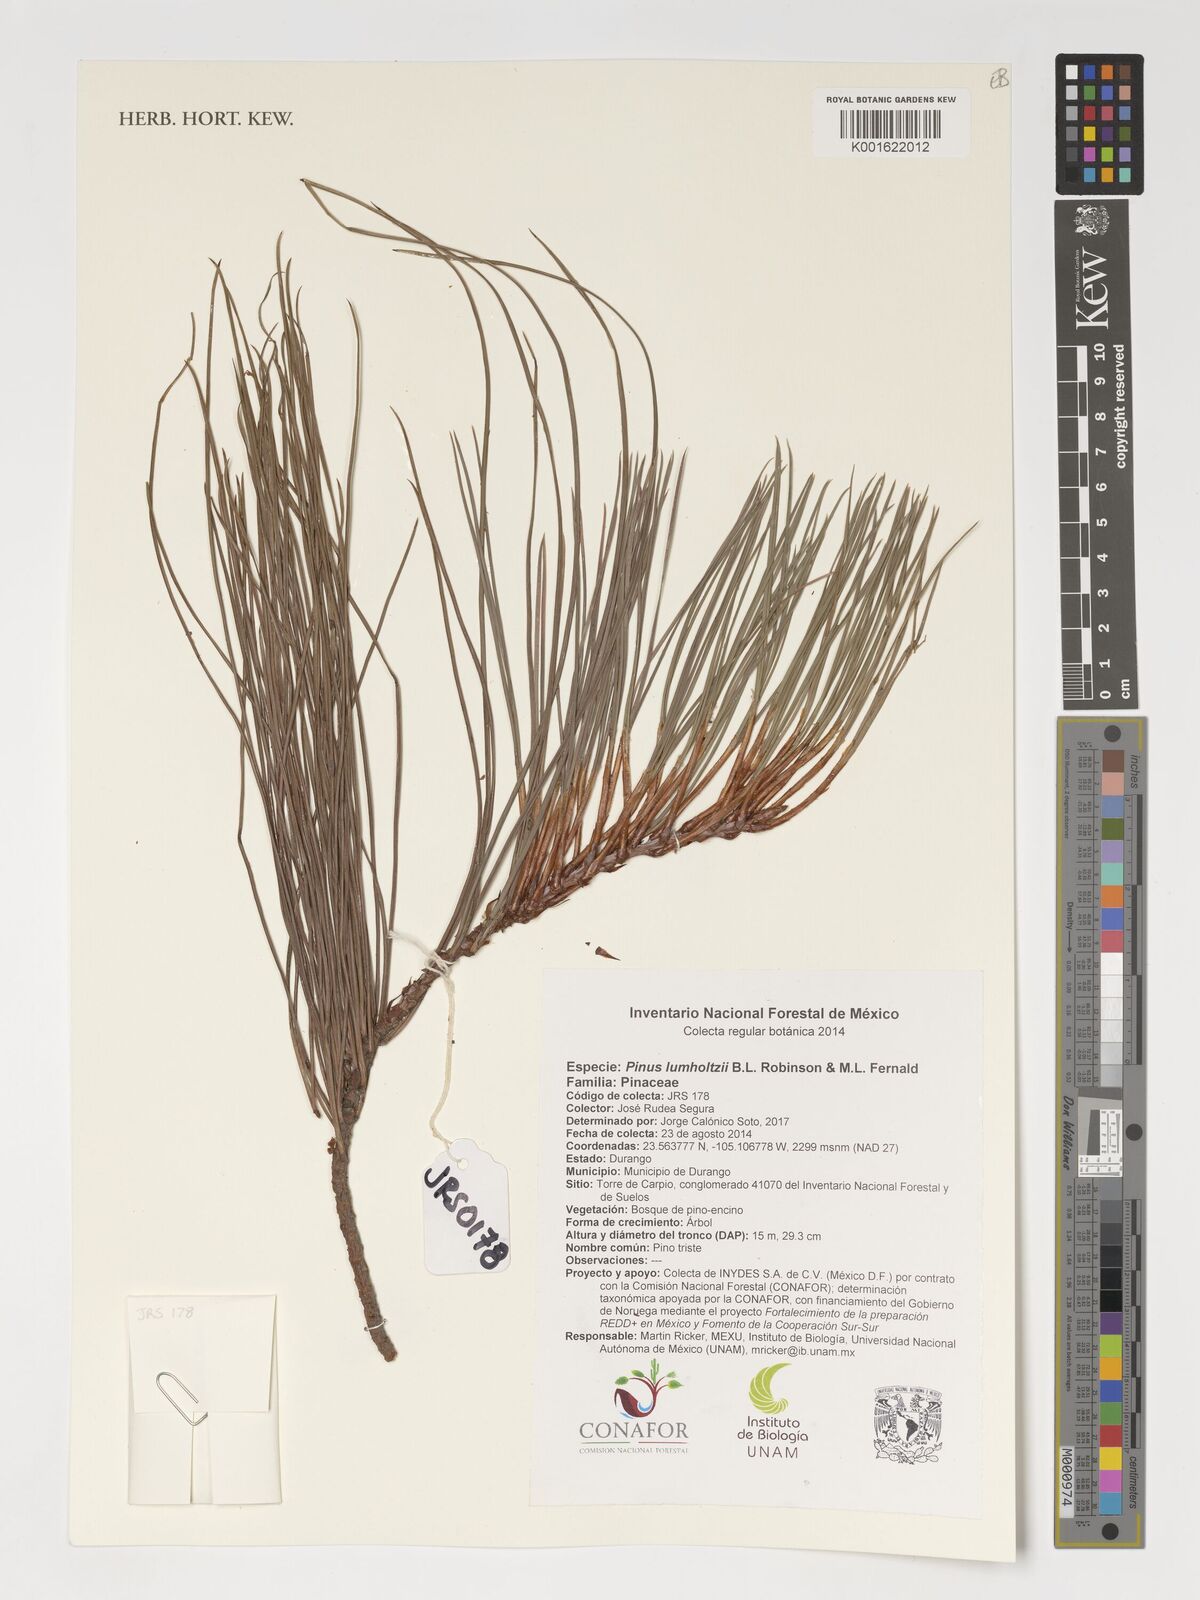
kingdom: Plantae
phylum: Tracheophyta
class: Pinopsida
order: Pinales
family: Pinaceae
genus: Pinus
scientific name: Pinus lumholtzii
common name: Lumholtz's pine
